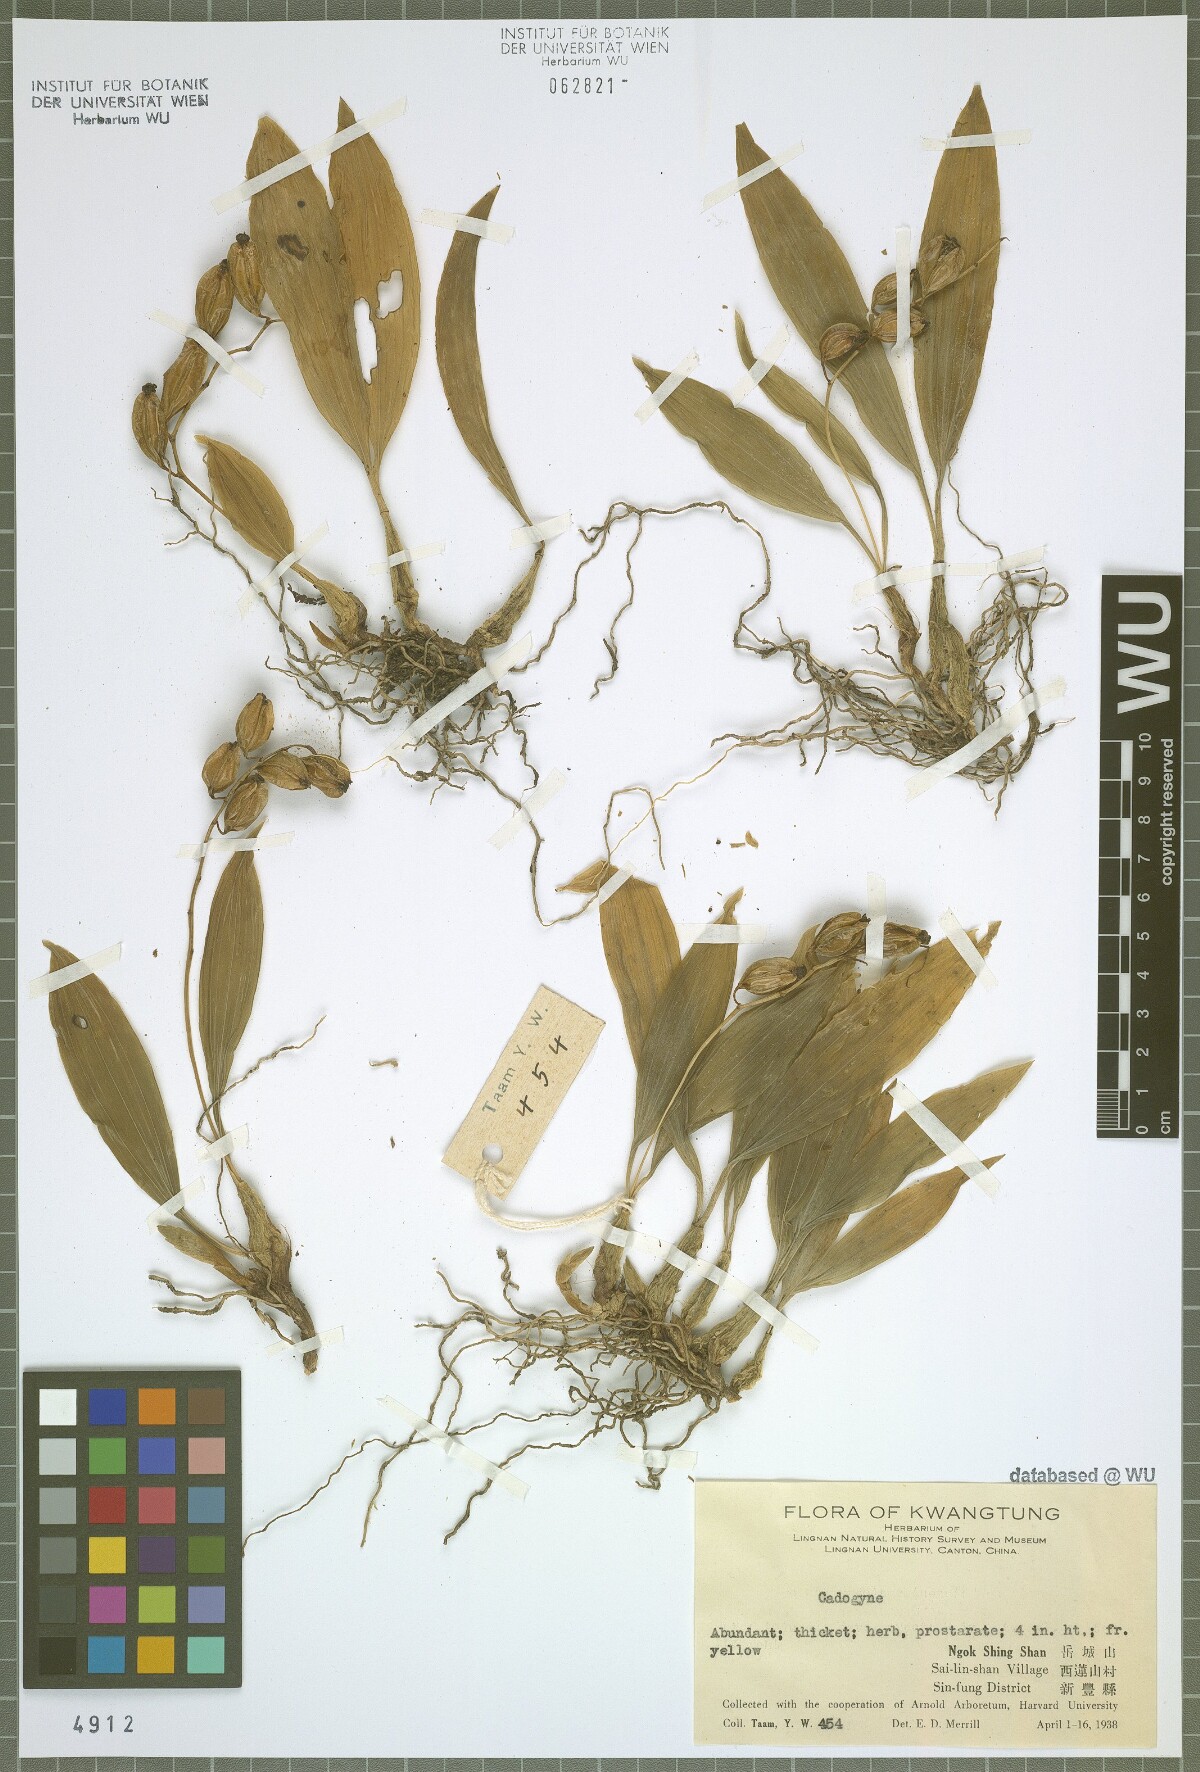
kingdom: Plantae
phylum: Tracheophyta
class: Liliopsida
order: Asparagales
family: Orchidaceae
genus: Coelogyne
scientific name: Coelogyne
